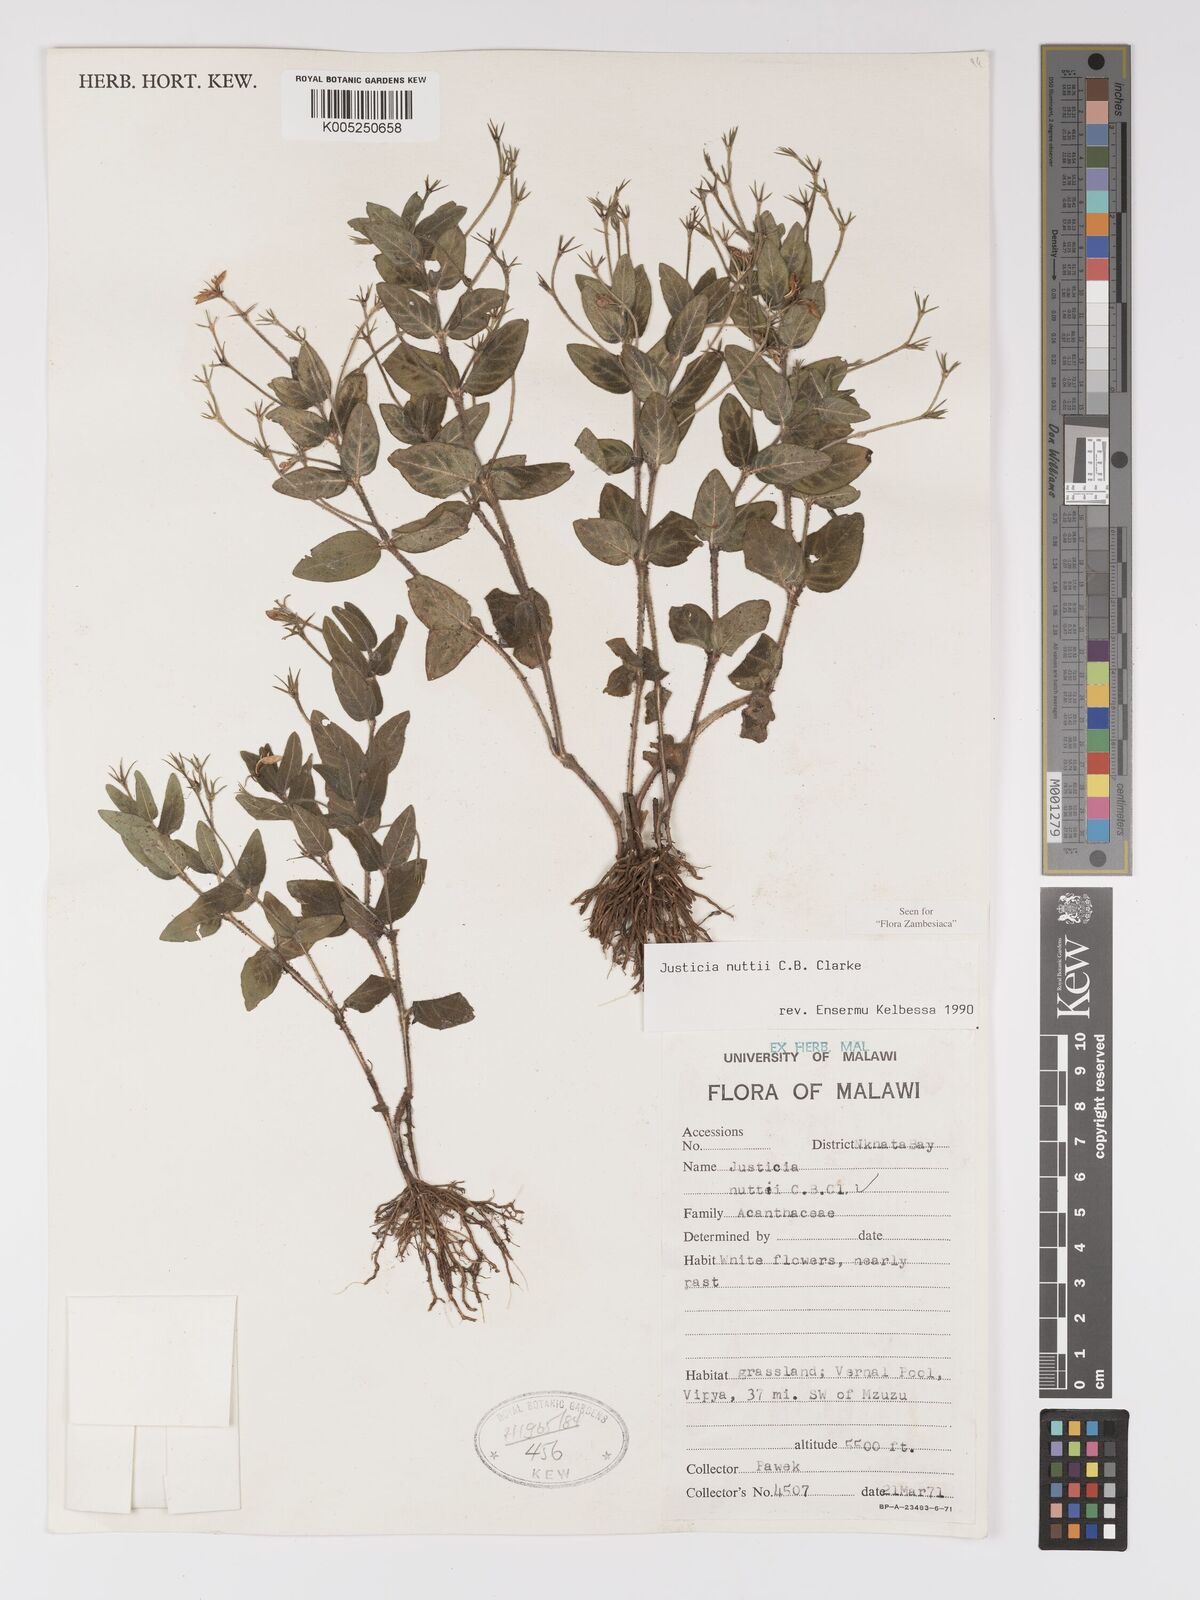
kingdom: Plantae
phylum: Tracheophyta
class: Magnoliopsida
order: Lamiales
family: Acanthaceae
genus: Justicia
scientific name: Justicia nuttii
